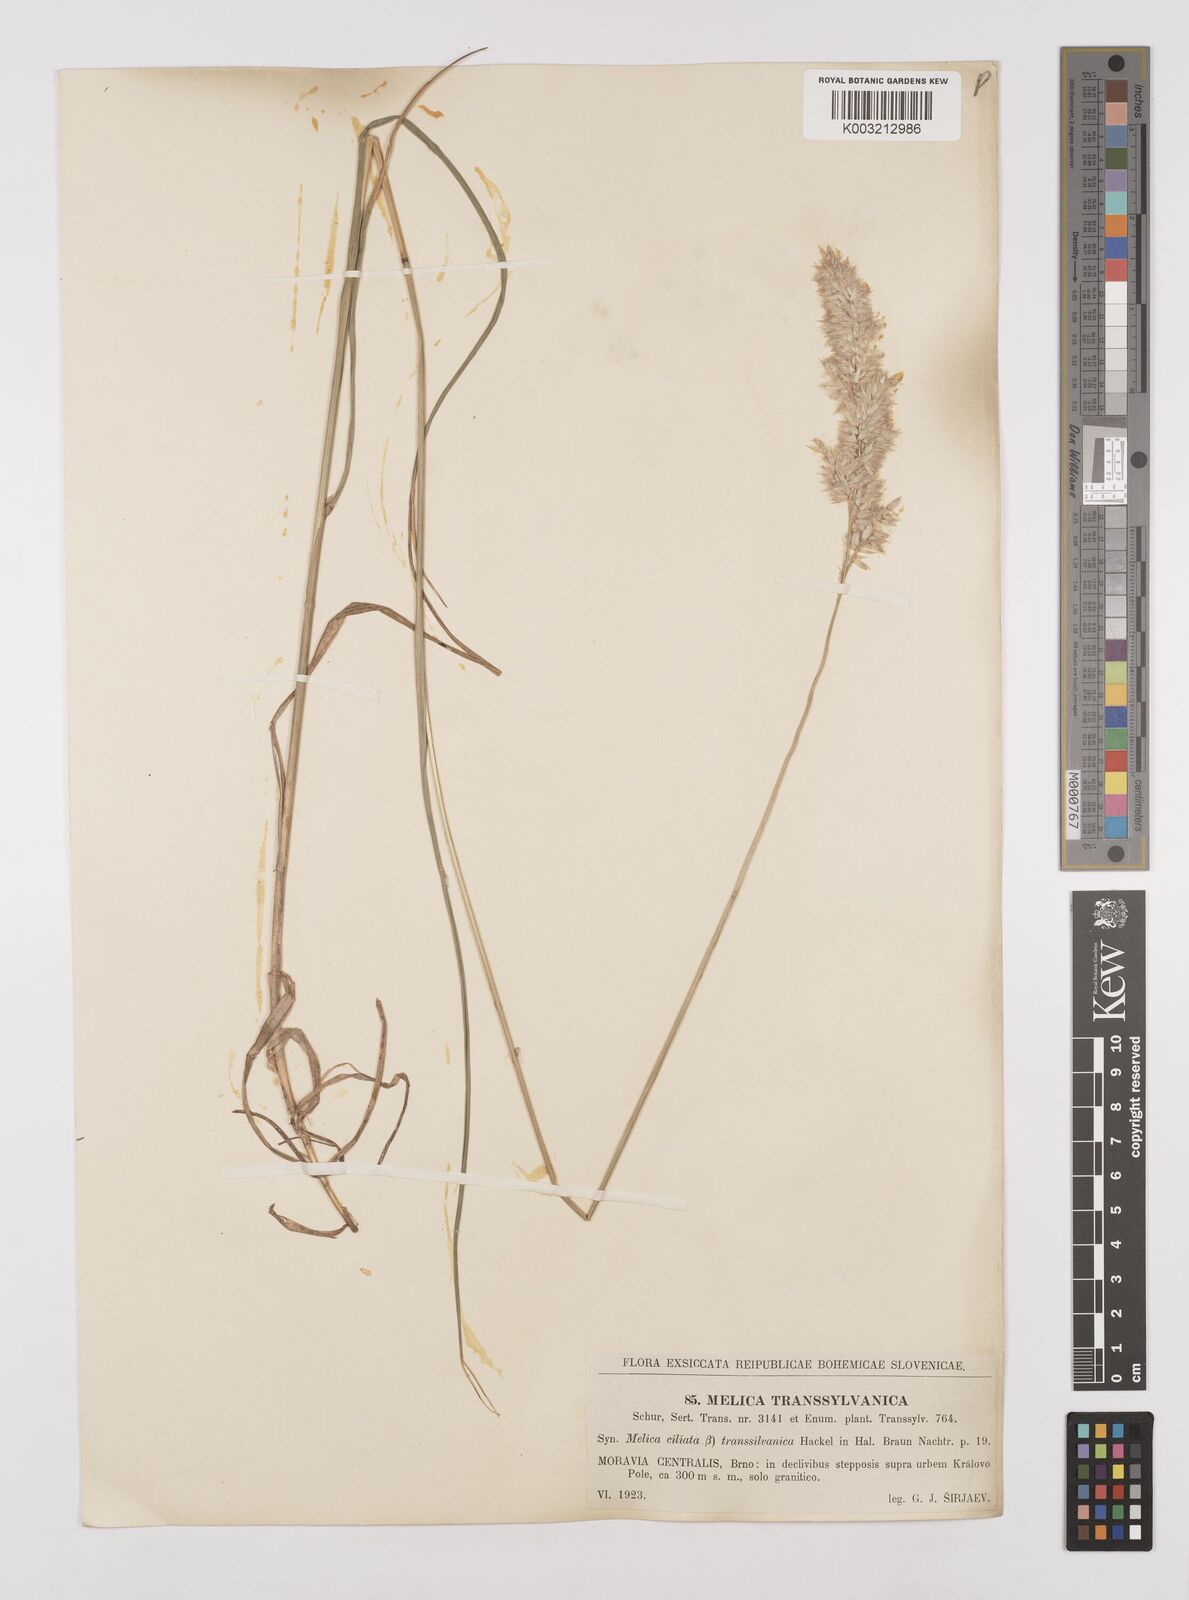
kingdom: Plantae
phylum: Tracheophyta
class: Liliopsida
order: Poales
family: Poaceae
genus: Melica
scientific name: Melica transsilvanica
